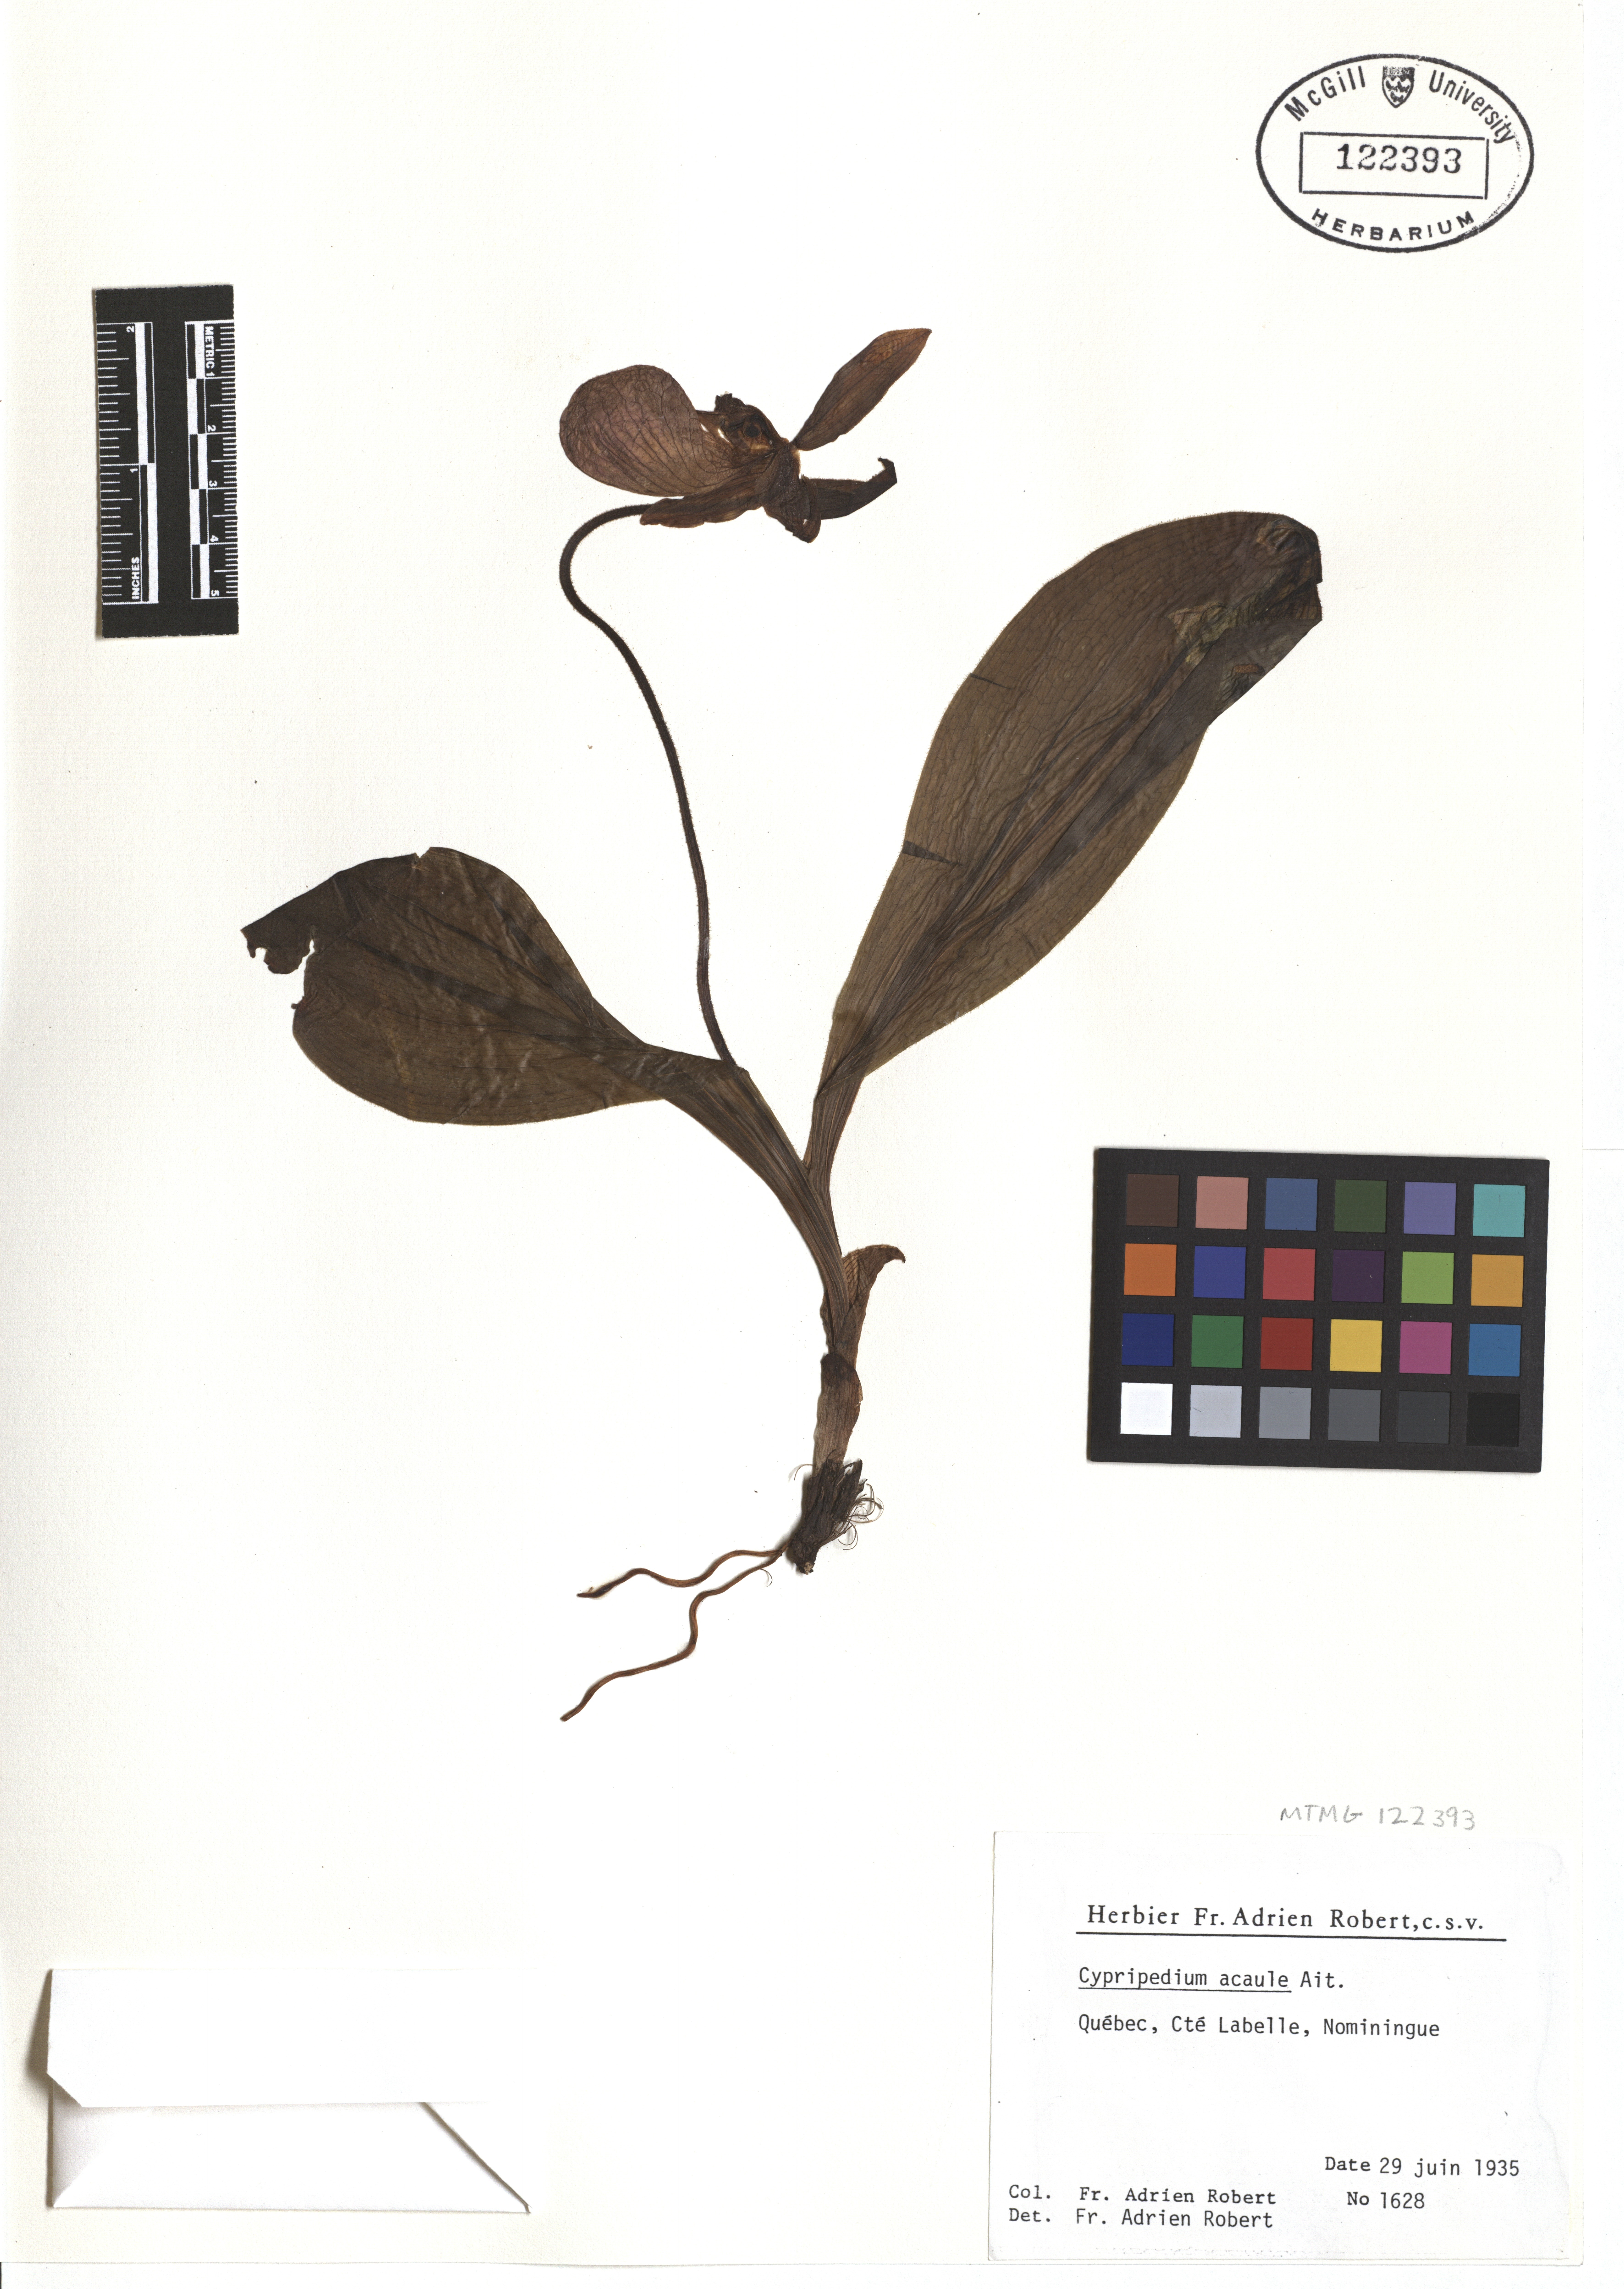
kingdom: Plantae
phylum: Tracheophyta
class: Liliopsida
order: Asparagales
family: Orchidaceae
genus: Cypripedium
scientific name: Cypripedium acaule
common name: Pink lady's-slipper
